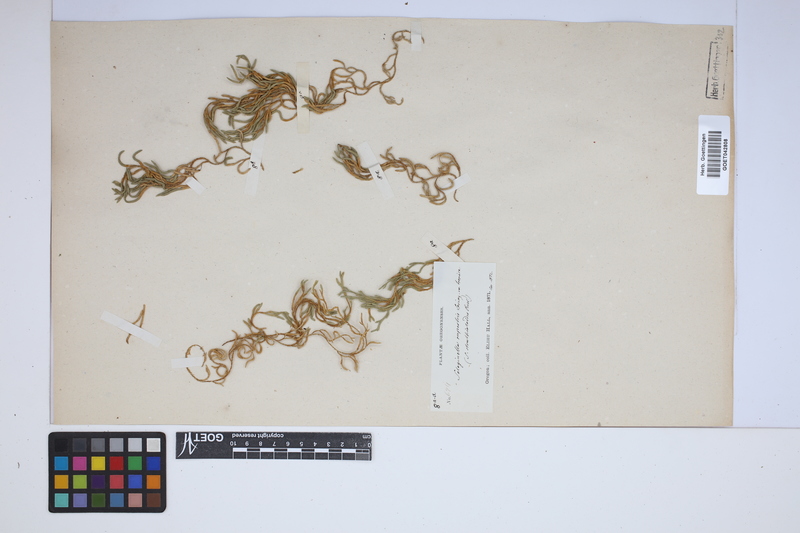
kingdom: Plantae
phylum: Tracheophyta
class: Lycopodiopsida
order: Selaginellales
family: Selaginellaceae
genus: Selaginella
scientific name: Selaginella rupestris
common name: Dwarf spikemoss
